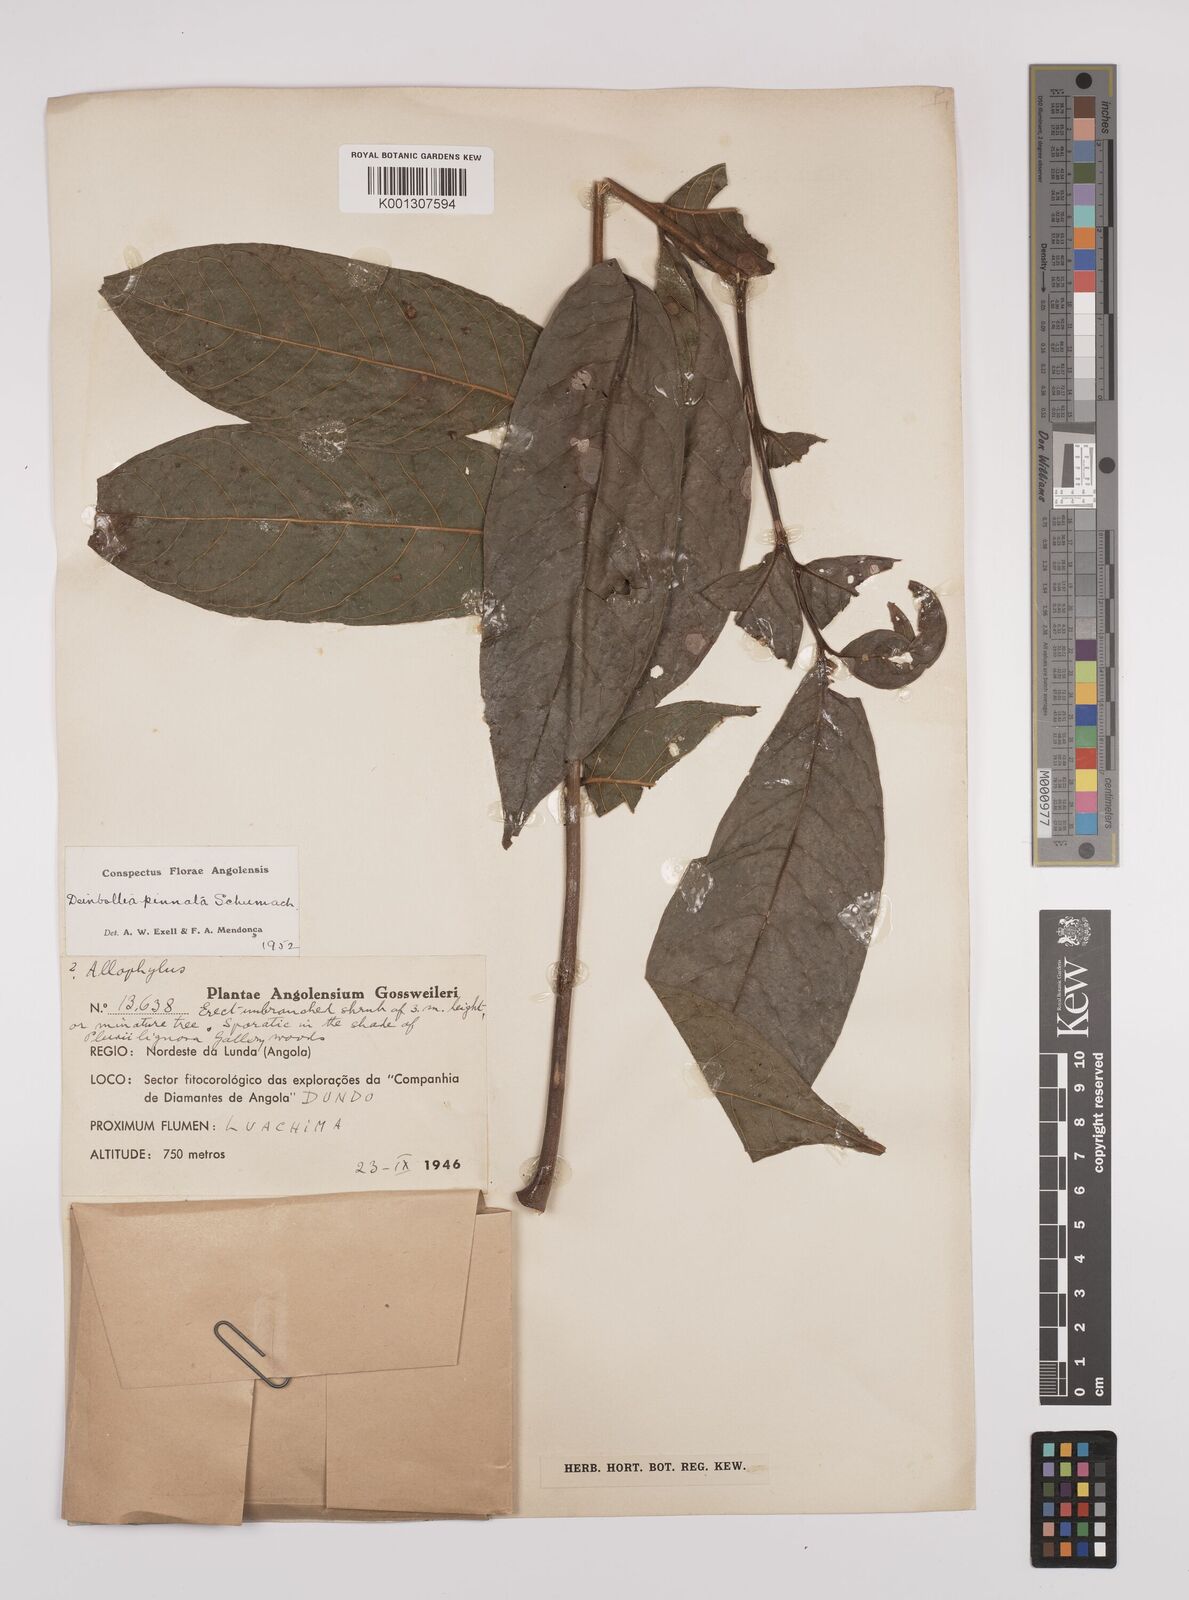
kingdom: Plantae
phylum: Tracheophyta
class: Magnoliopsida
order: Sapindales
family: Sapindaceae
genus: Deinbollia
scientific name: Deinbollia pinnata
